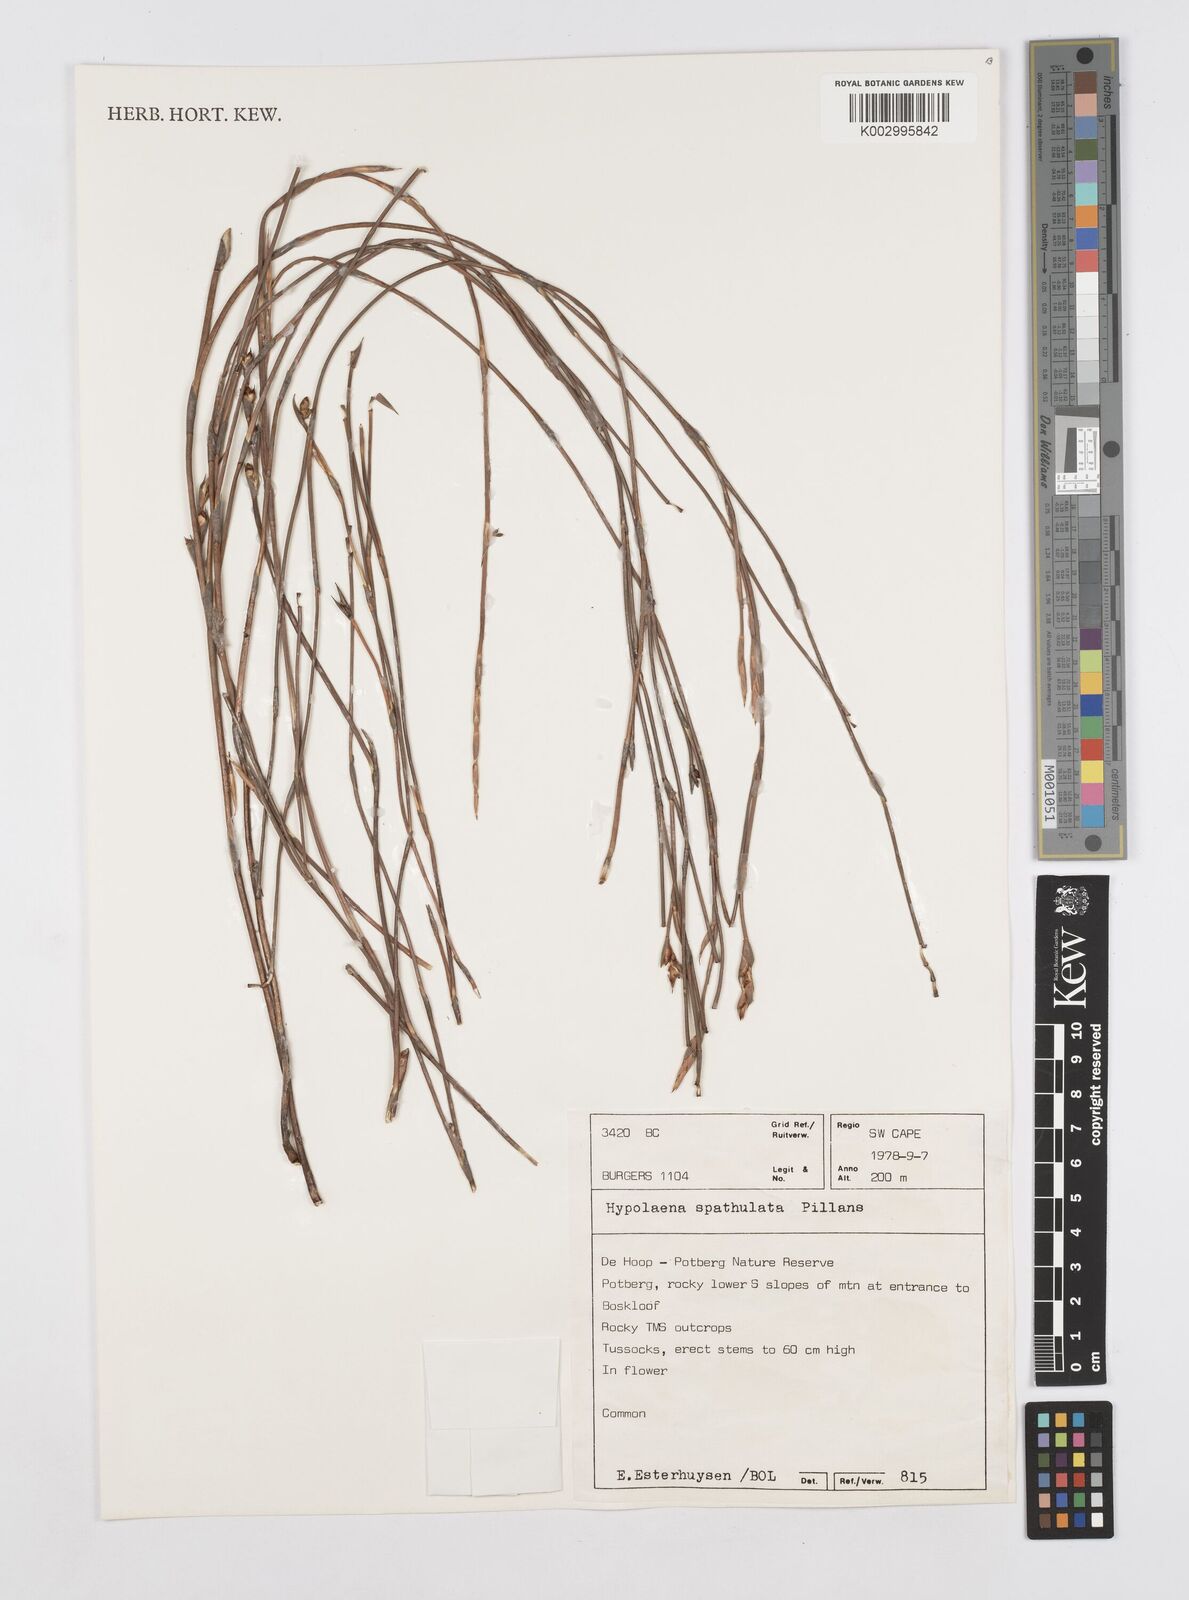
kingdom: Plantae
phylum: Tracheophyta
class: Liliopsida
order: Poales
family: Restionaceae
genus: Mastersiella
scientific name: Mastersiella spathulata
